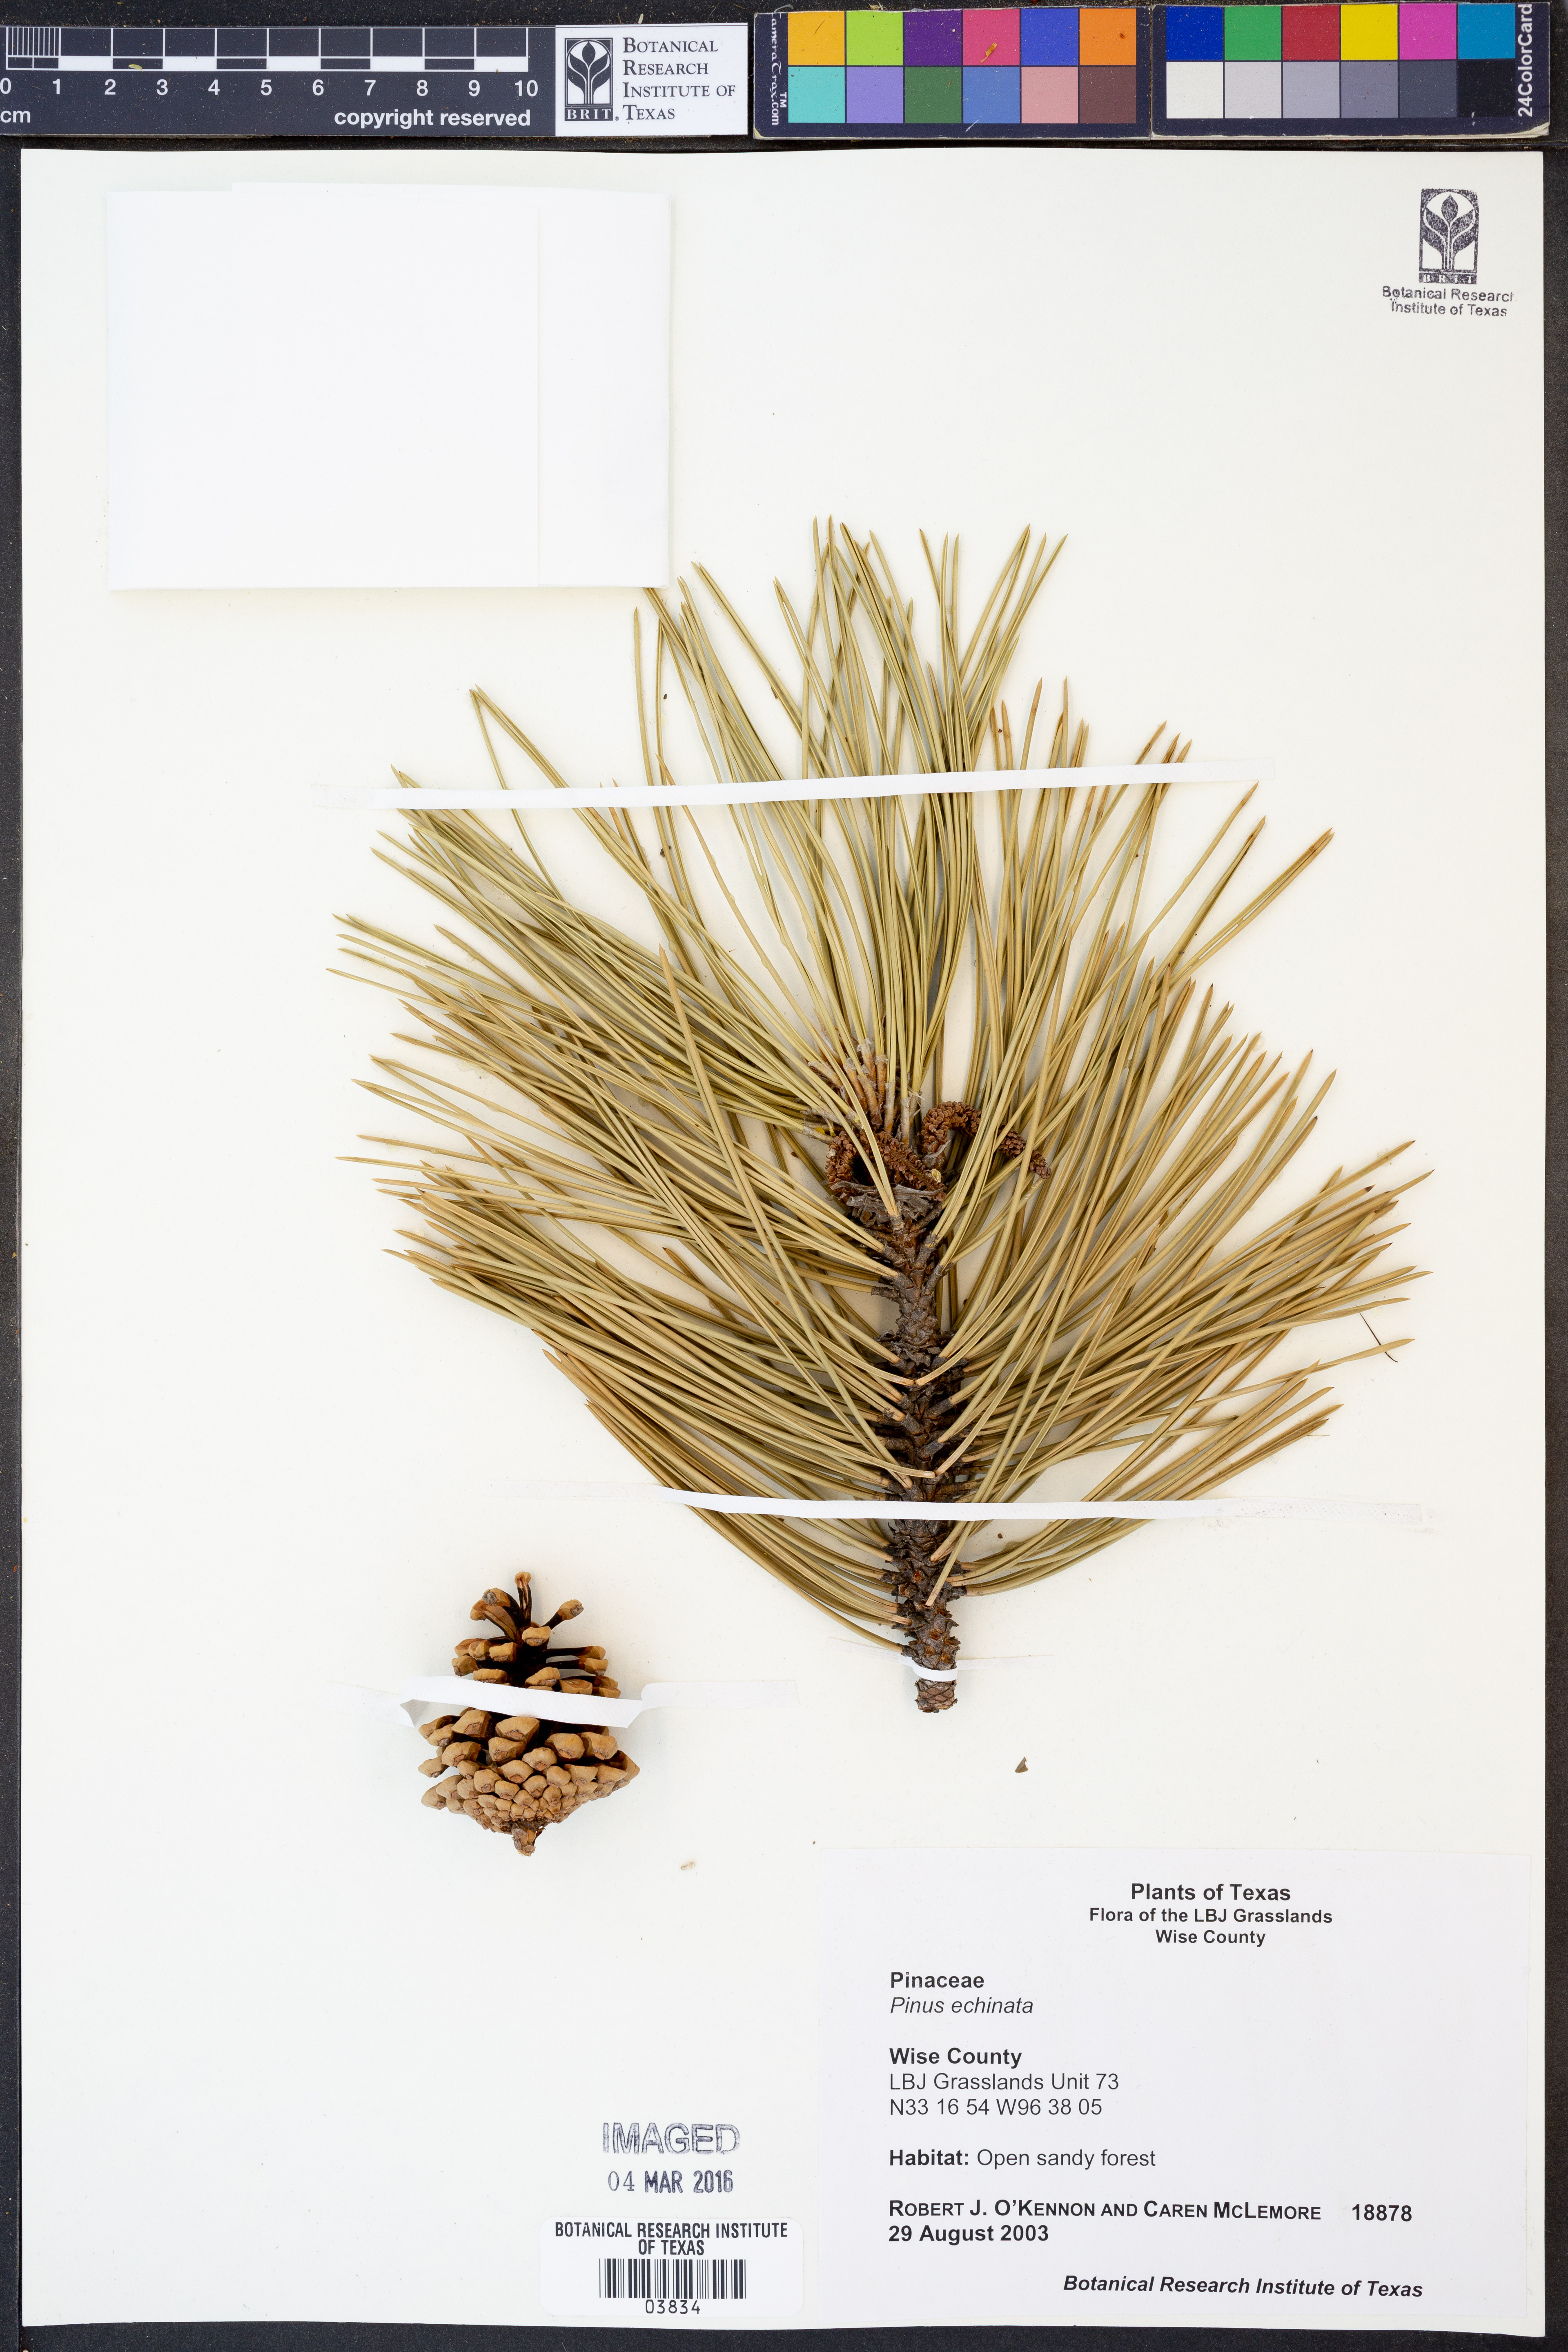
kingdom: Plantae
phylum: Tracheophyta
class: Pinopsida
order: Pinales
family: Pinaceae
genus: Pinus
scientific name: Pinus echinata
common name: Shortleaf pine
